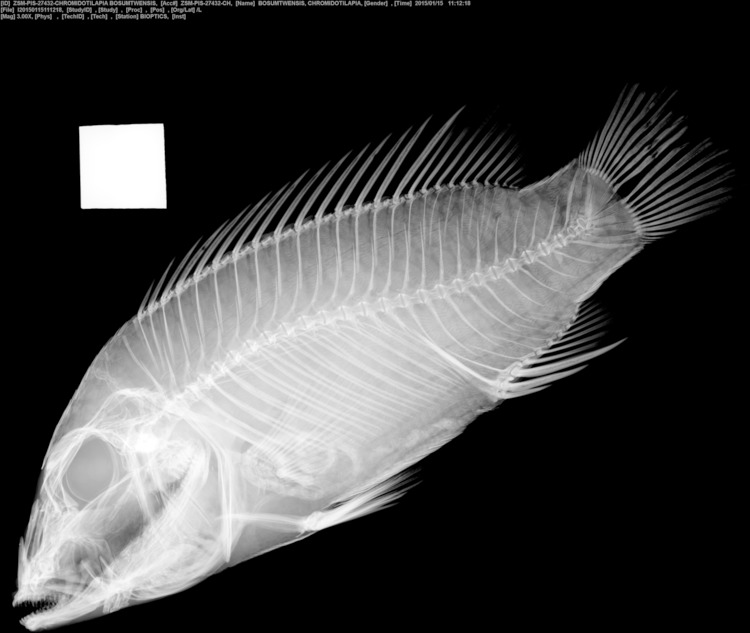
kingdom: Animalia
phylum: Chordata
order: Perciformes
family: Cichlidae
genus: Chromidotilapia
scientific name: Chromidotilapia guntheri
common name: Cichlid
